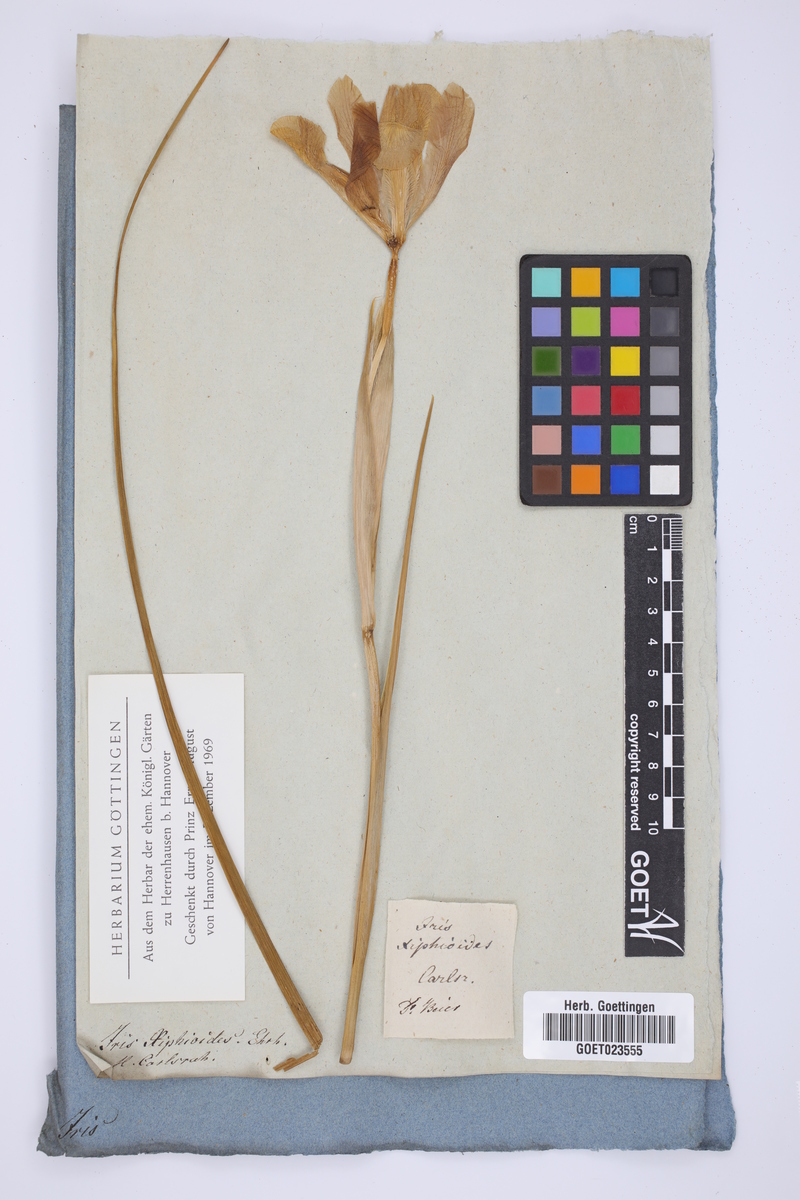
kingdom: Plantae
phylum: Tracheophyta
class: Liliopsida
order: Asparagales
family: Iridaceae
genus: Iris
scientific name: Iris jacquinii
